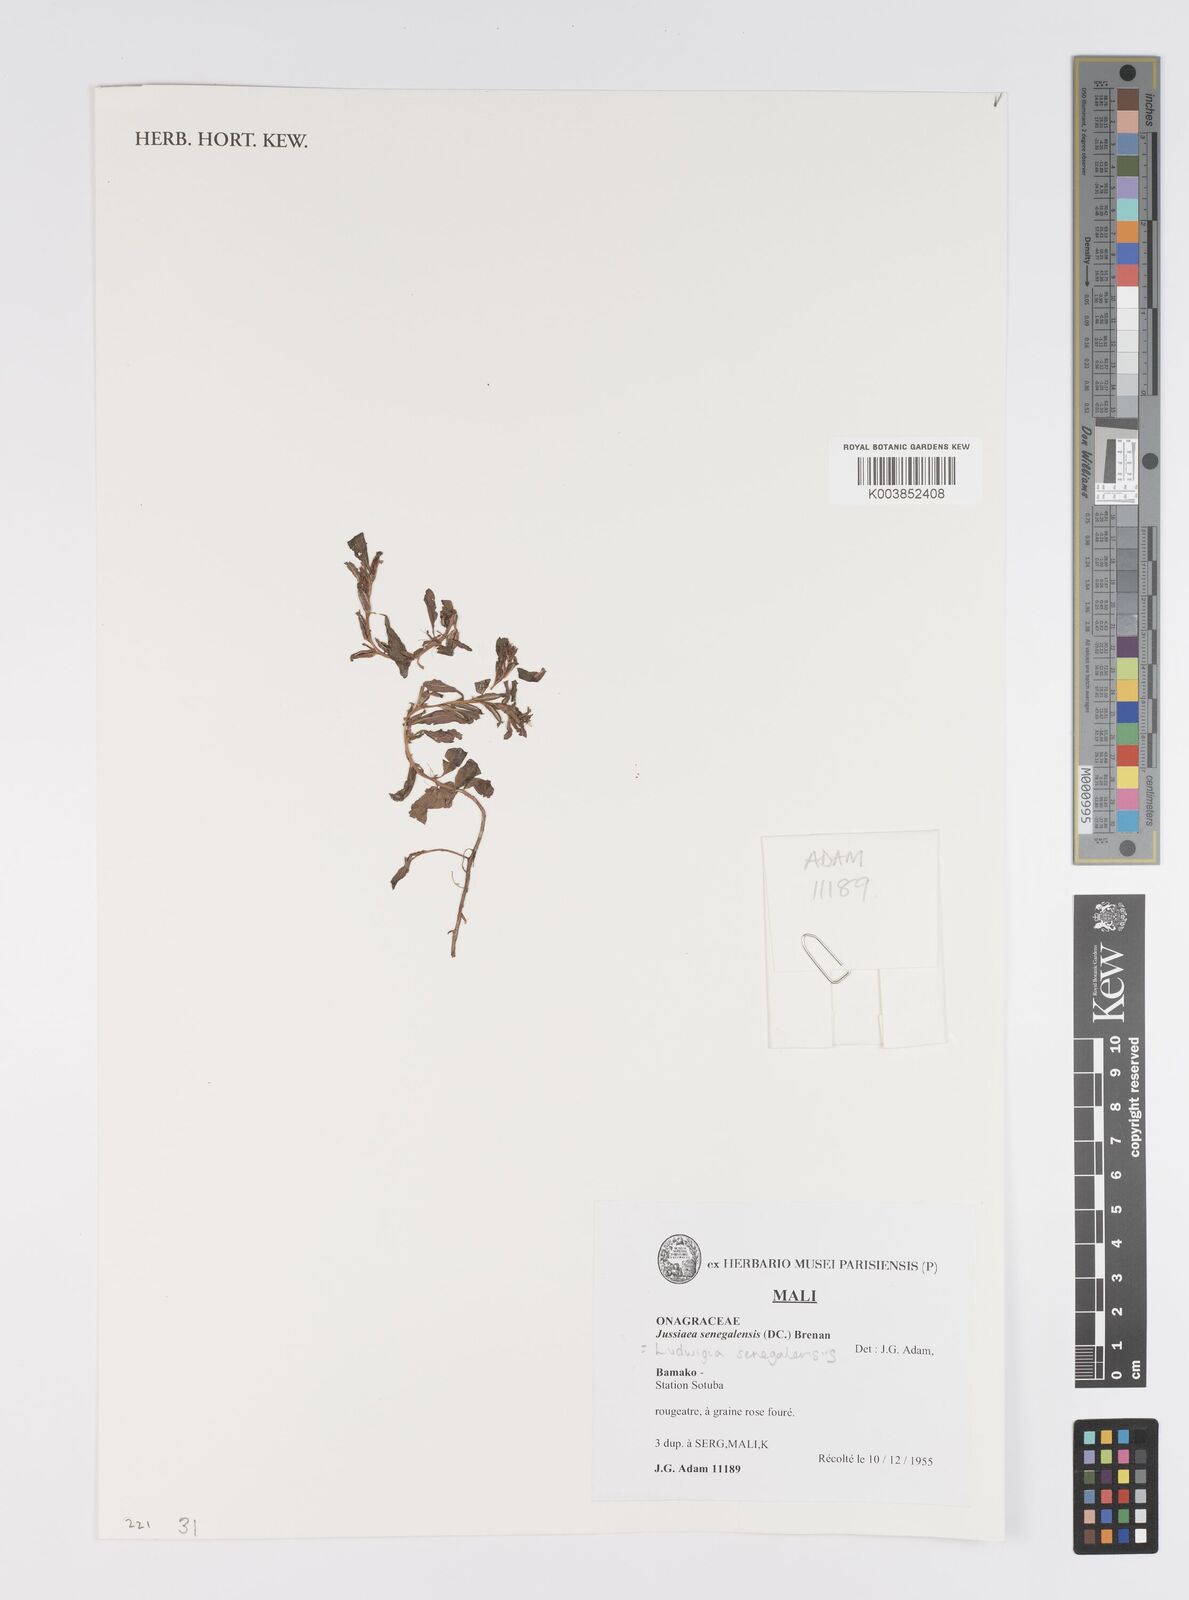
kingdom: Plantae
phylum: Tracheophyta
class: Magnoliopsida
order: Myrtales
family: Onagraceae
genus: Ludwigia
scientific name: Ludwigia senegalensis
